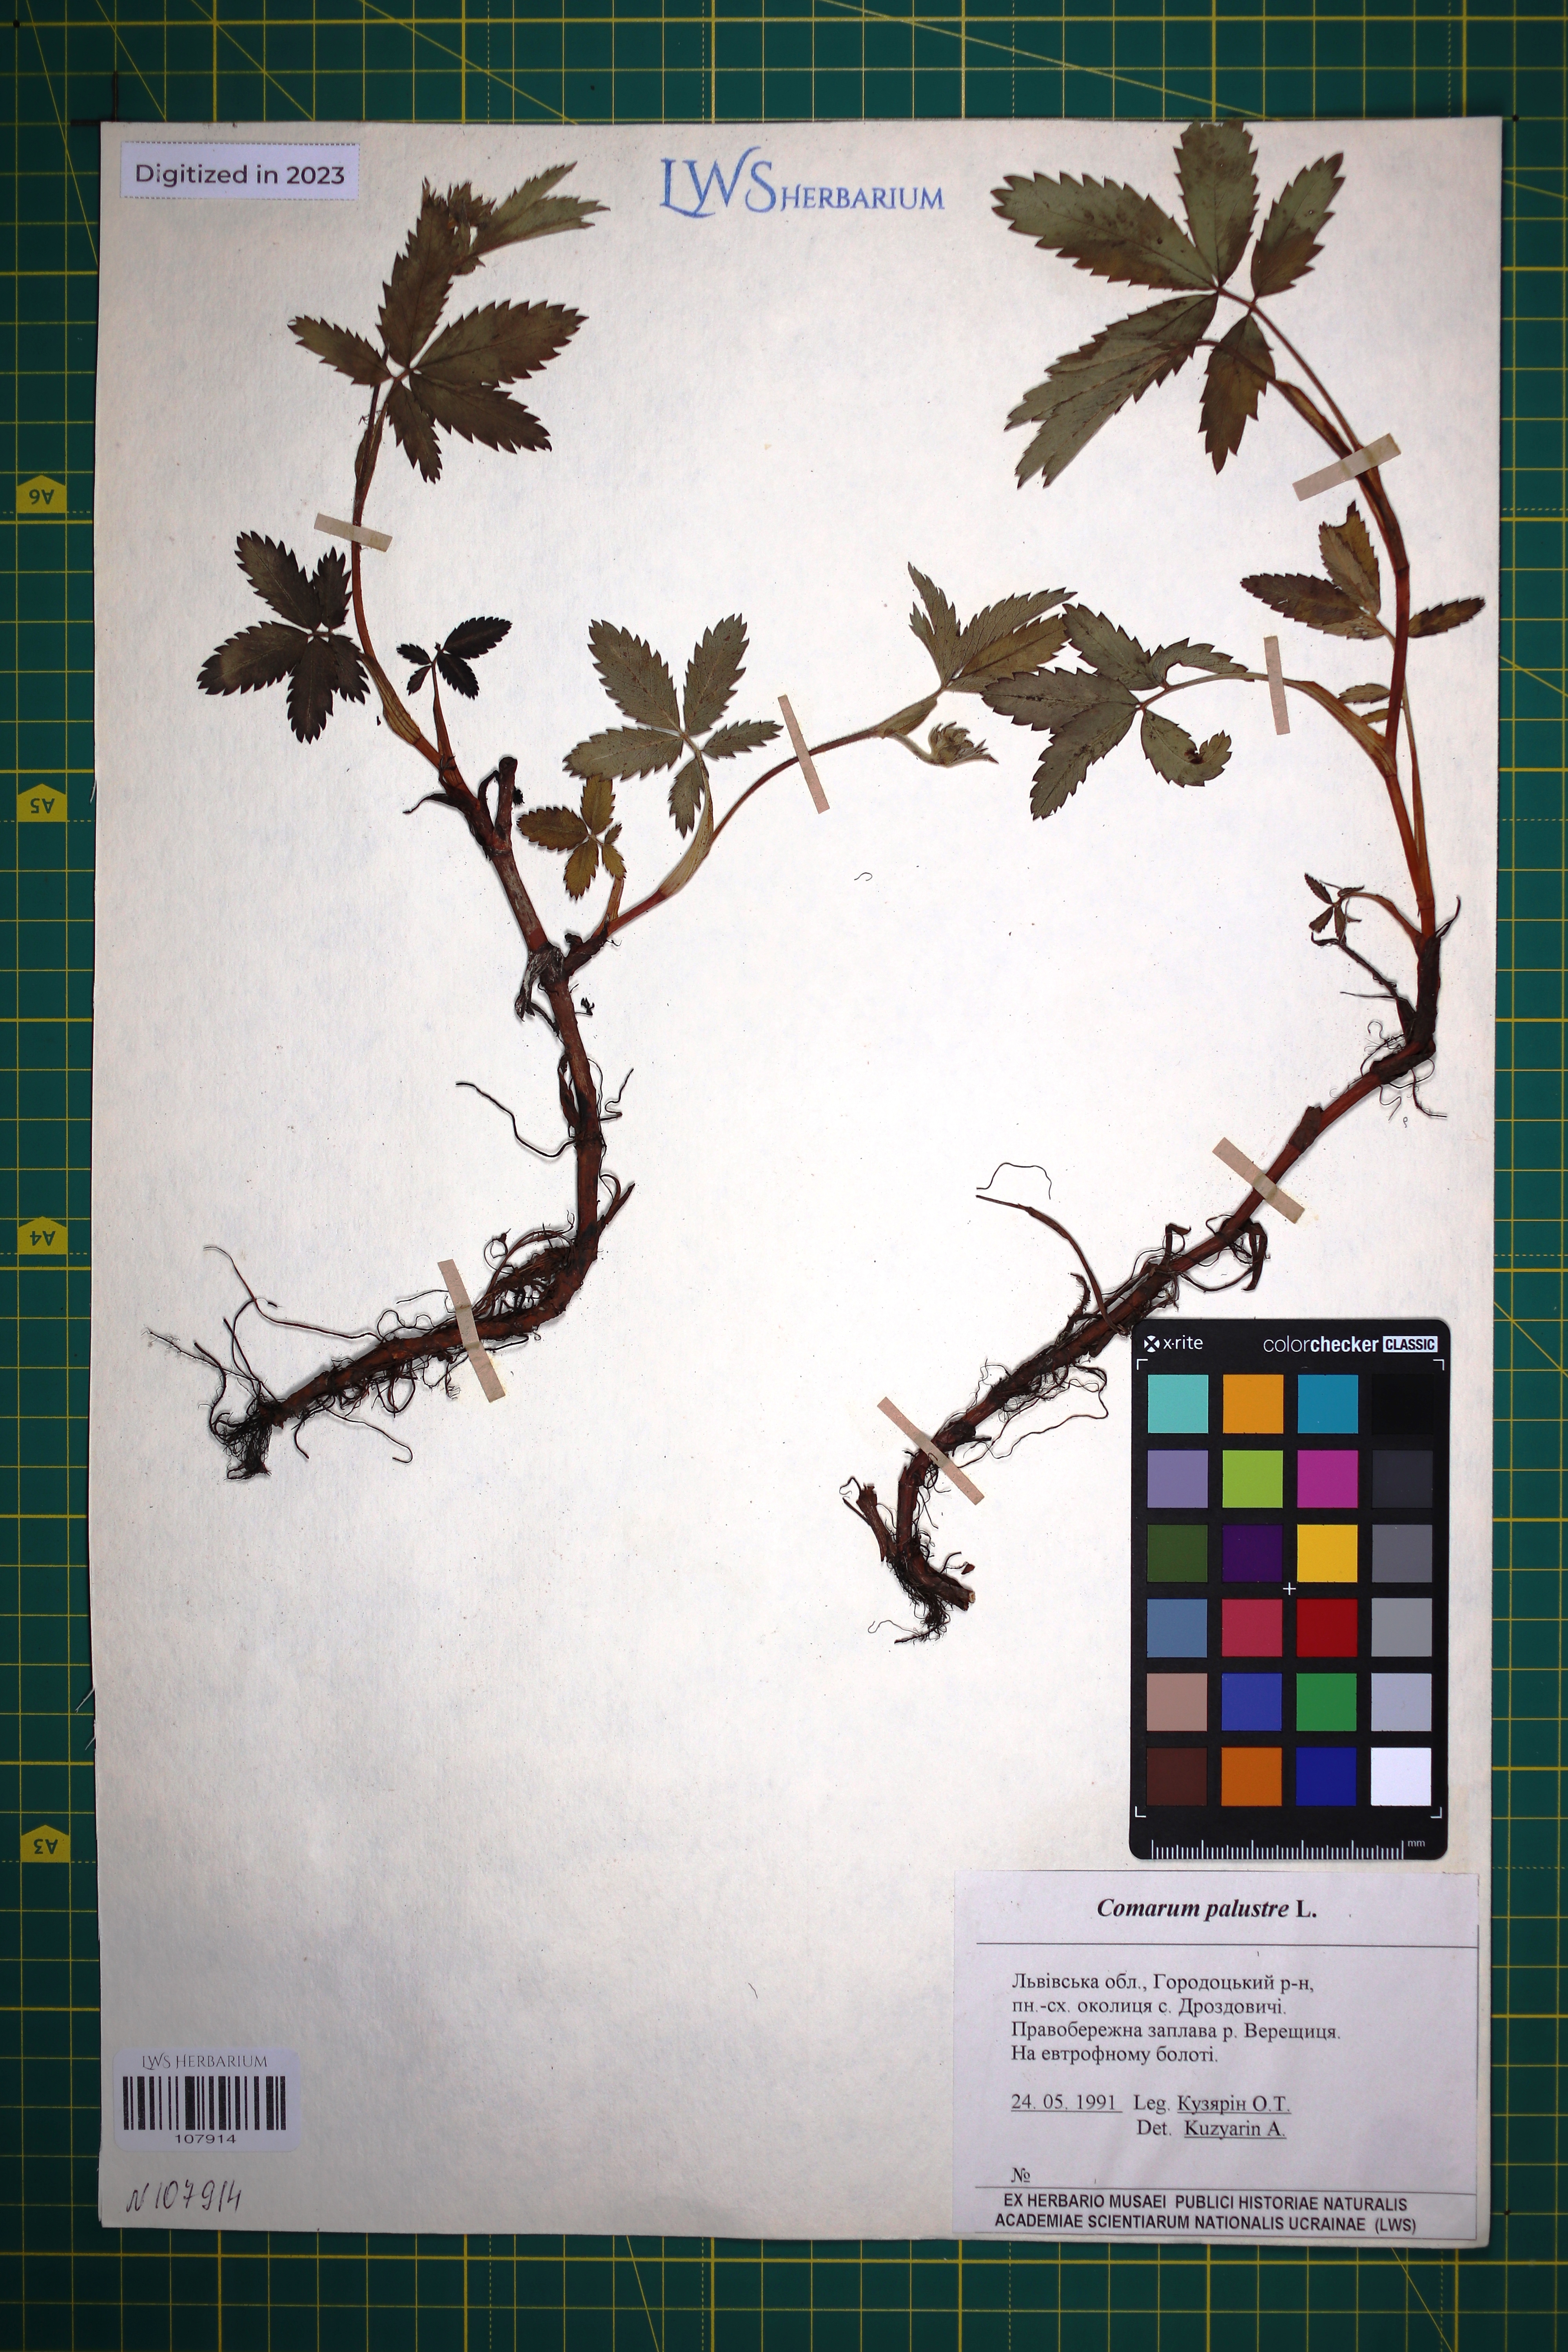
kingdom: Plantae
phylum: Tracheophyta
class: Magnoliopsida
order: Rosales
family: Rosaceae
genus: Comarum
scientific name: Comarum palustre
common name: Marsh cinquefoil
